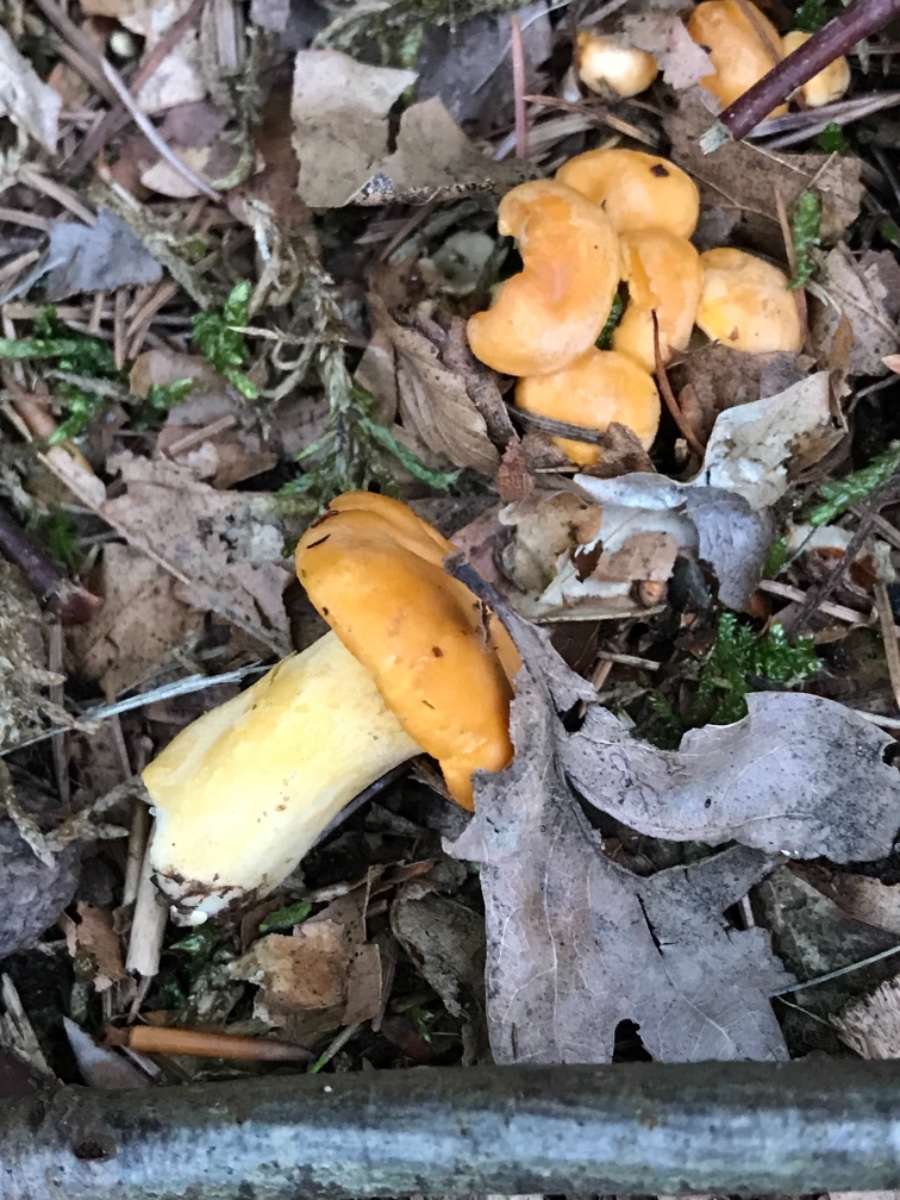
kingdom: Fungi
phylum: Basidiomycota
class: Agaricomycetes
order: Cantharellales
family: Hydnaceae
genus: Cantharellus
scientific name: Cantharellus cibarius
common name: almindelig kantarel
